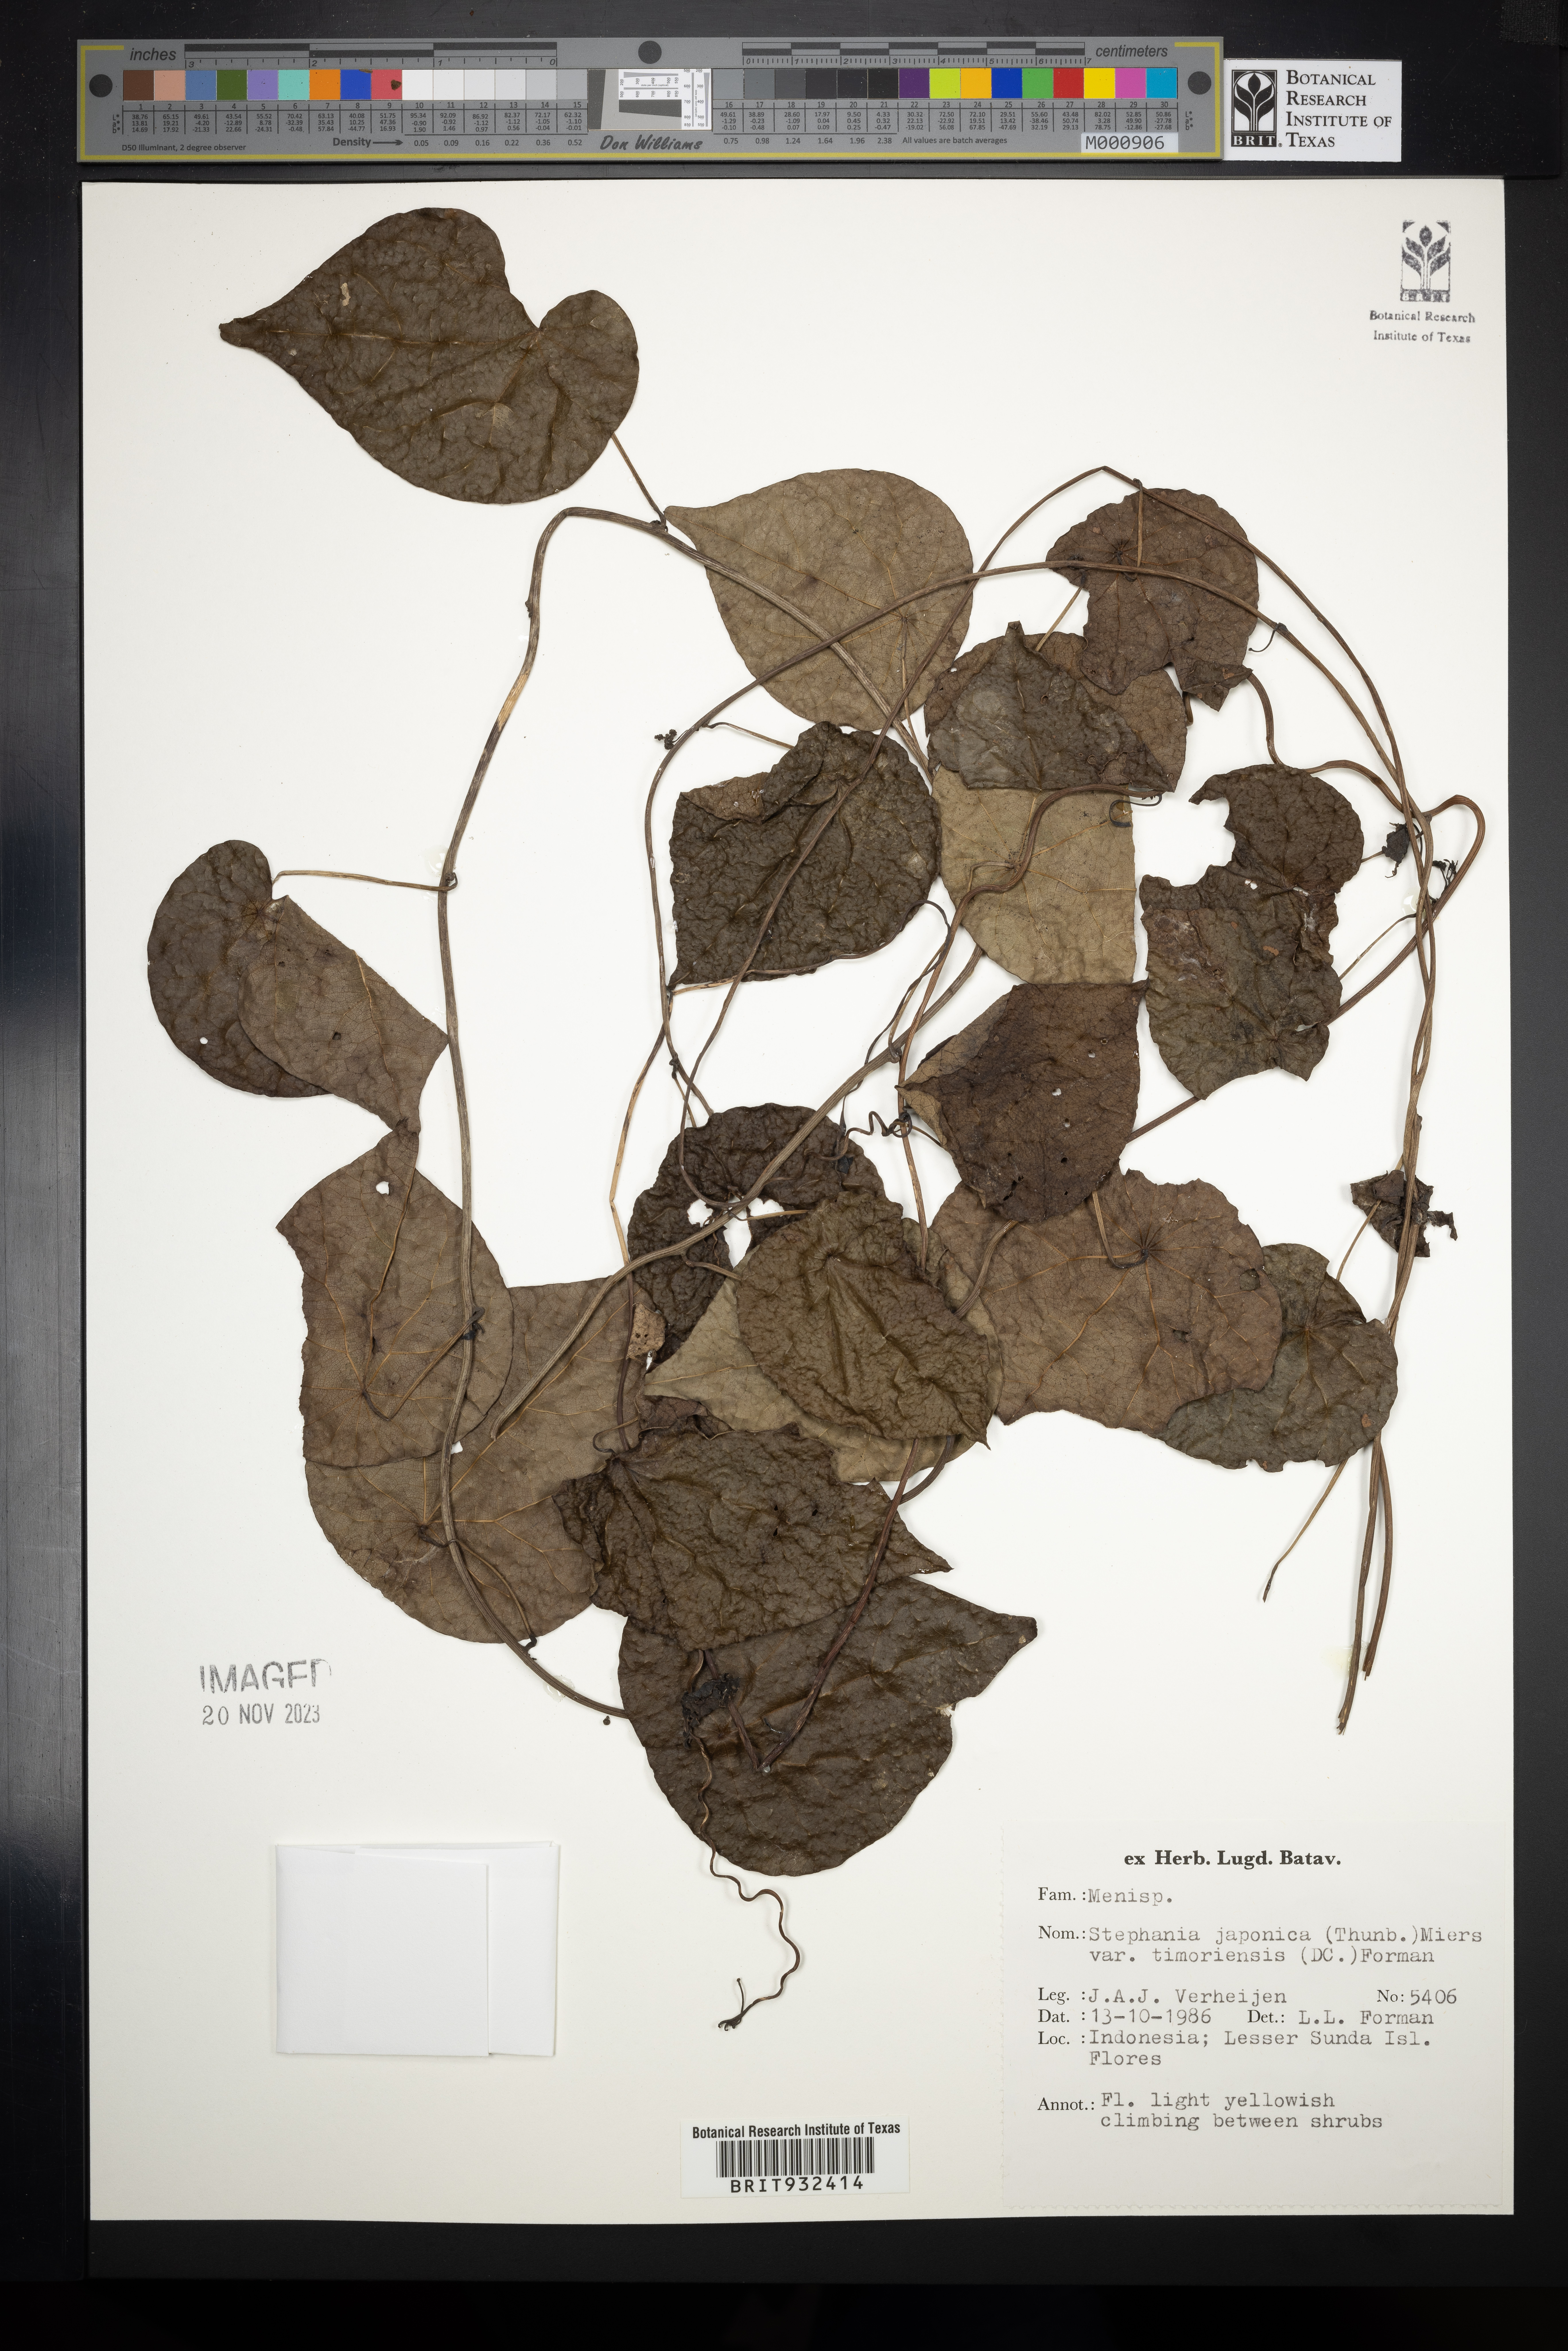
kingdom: Plantae
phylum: Tracheophyta
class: Magnoliopsida
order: Ranunculales
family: Menispermaceae
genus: Stephania
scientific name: Stephania japonica
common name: Snake vine
